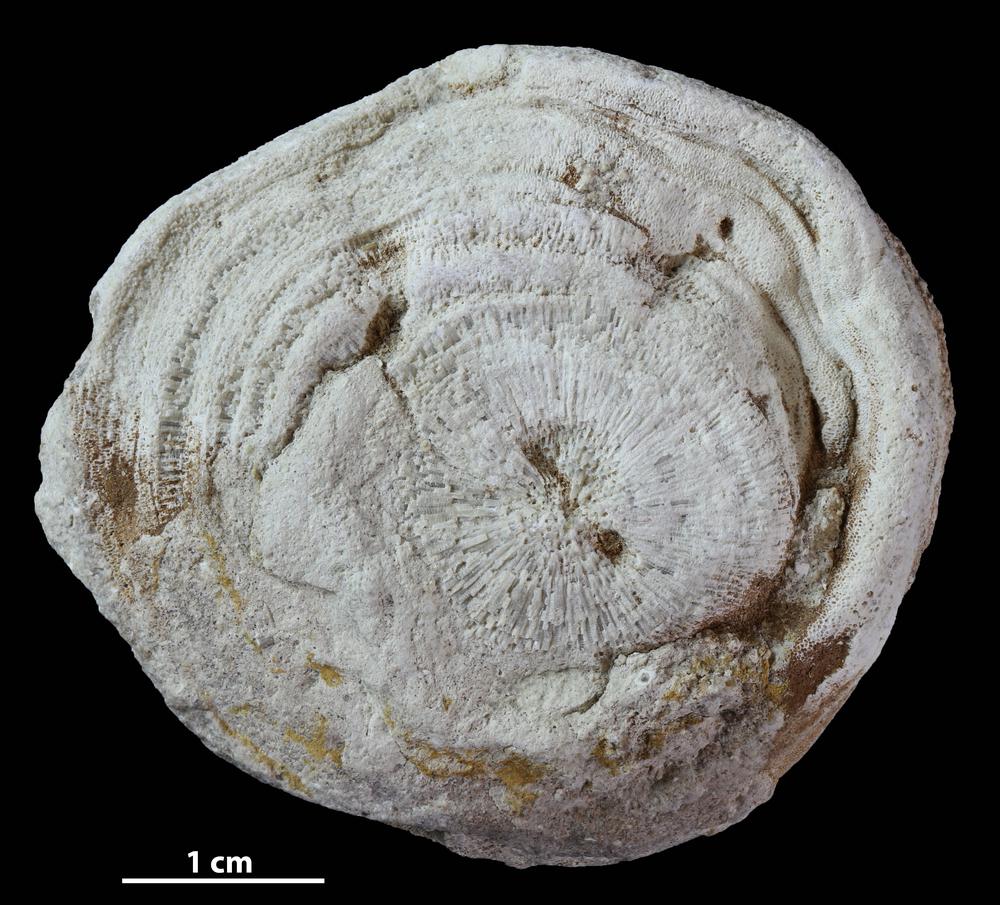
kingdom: Animalia
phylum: Bryozoa
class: Stenolaemata
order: Trepostomatida
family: Diplotrypidae
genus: Diplotrypa
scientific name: Diplotrypa
